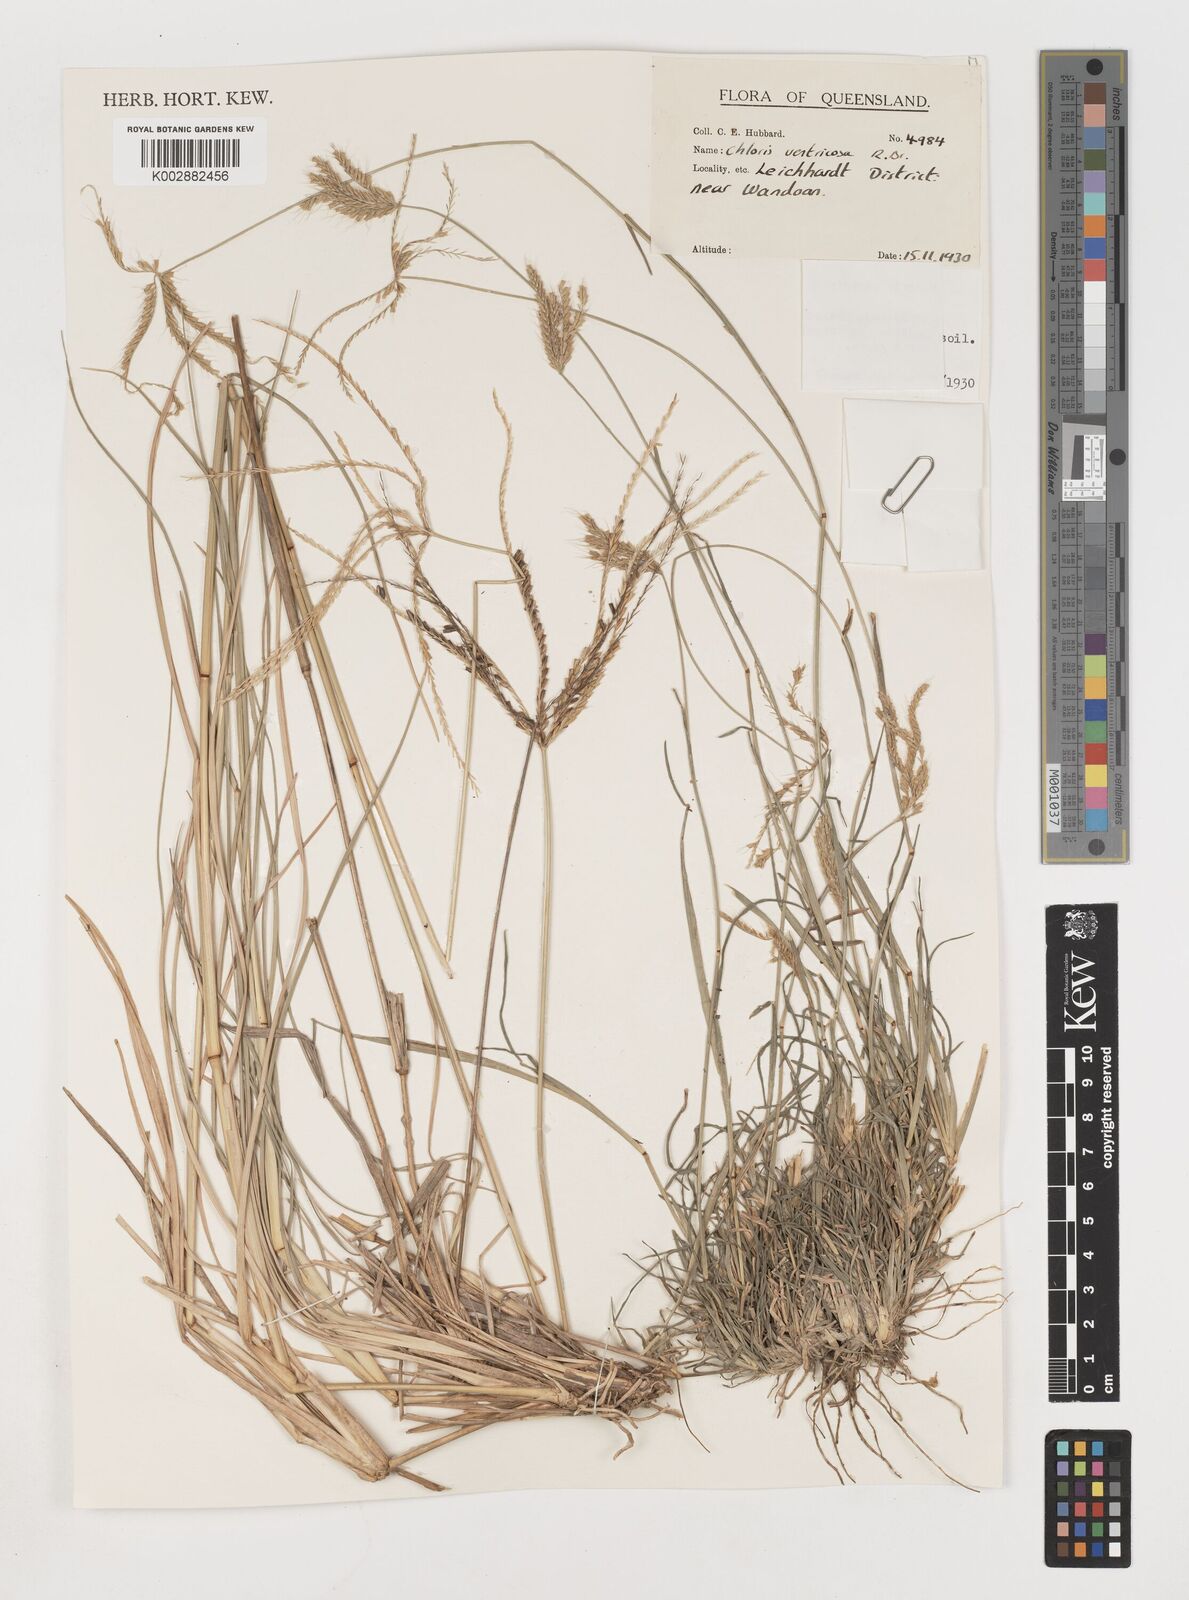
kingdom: Plantae
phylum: Tracheophyta
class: Liliopsida
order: Poales
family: Poaceae
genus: Chloris
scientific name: Chloris ventricosa
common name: Australian windmill grass
